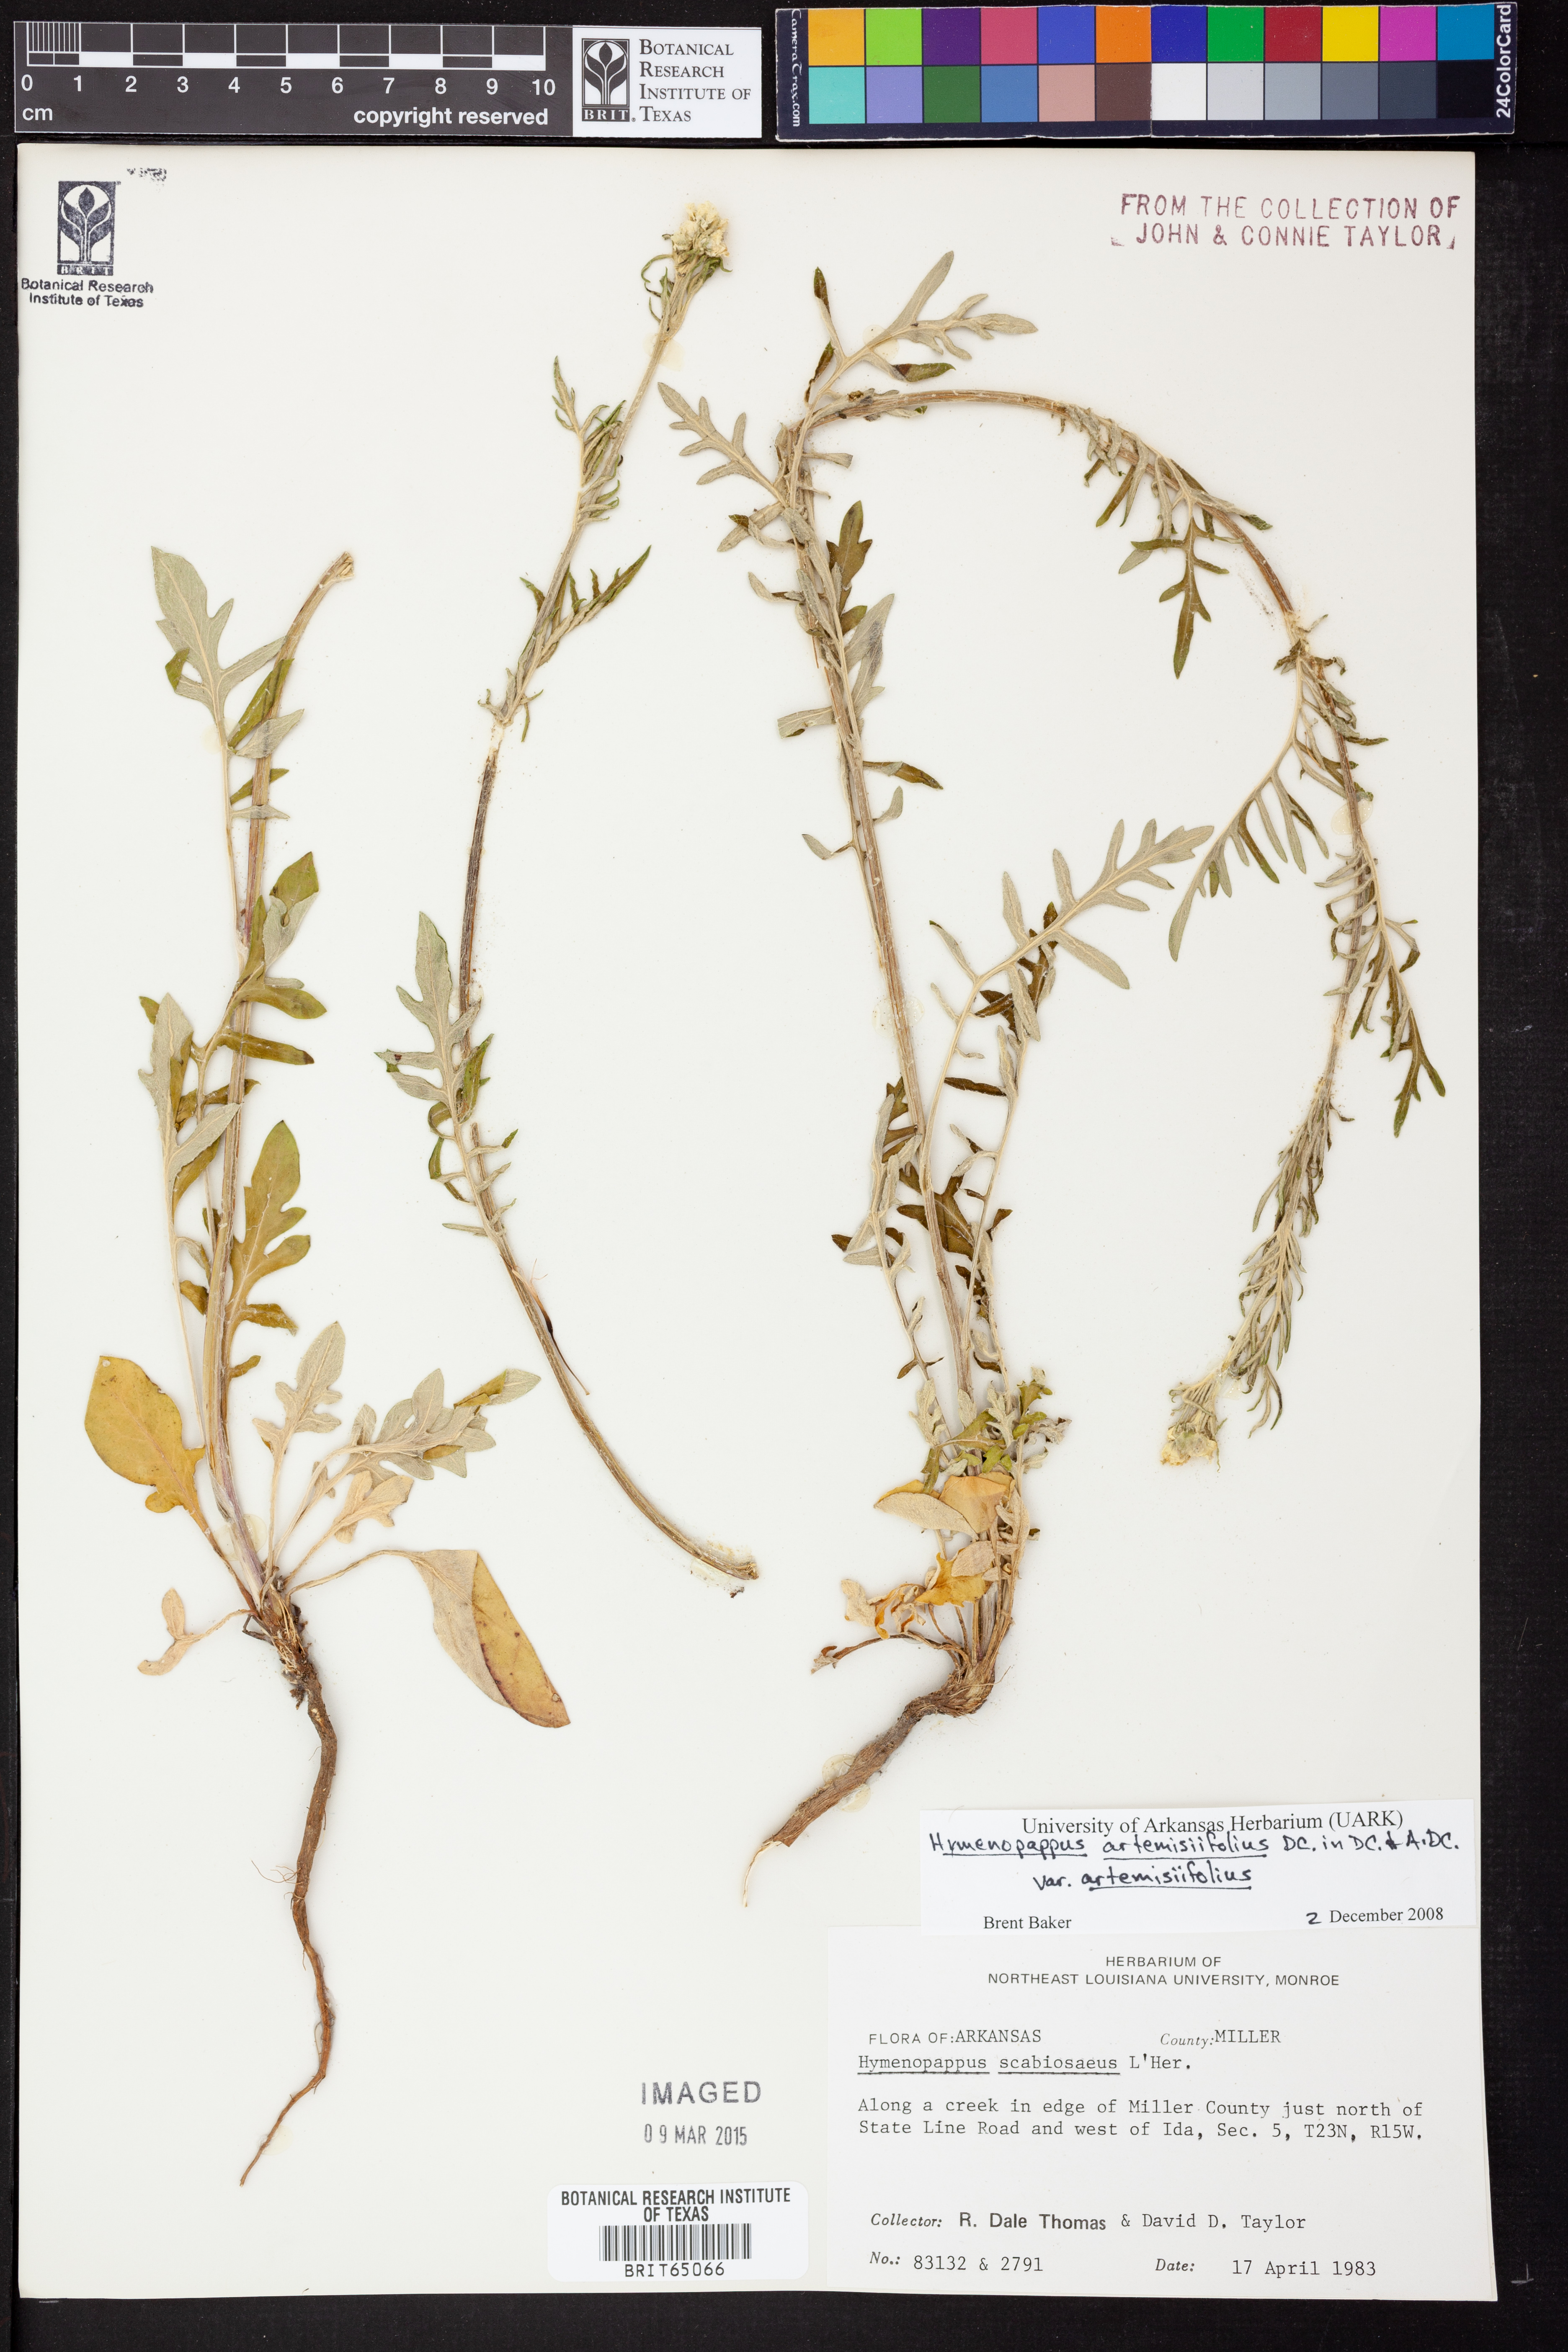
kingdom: Plantae
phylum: Tracheophyta
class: Magnoliopsida
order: Asterales
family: Asteraceae
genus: Hymenopappus
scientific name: Hymenopappus artemisiifolius
